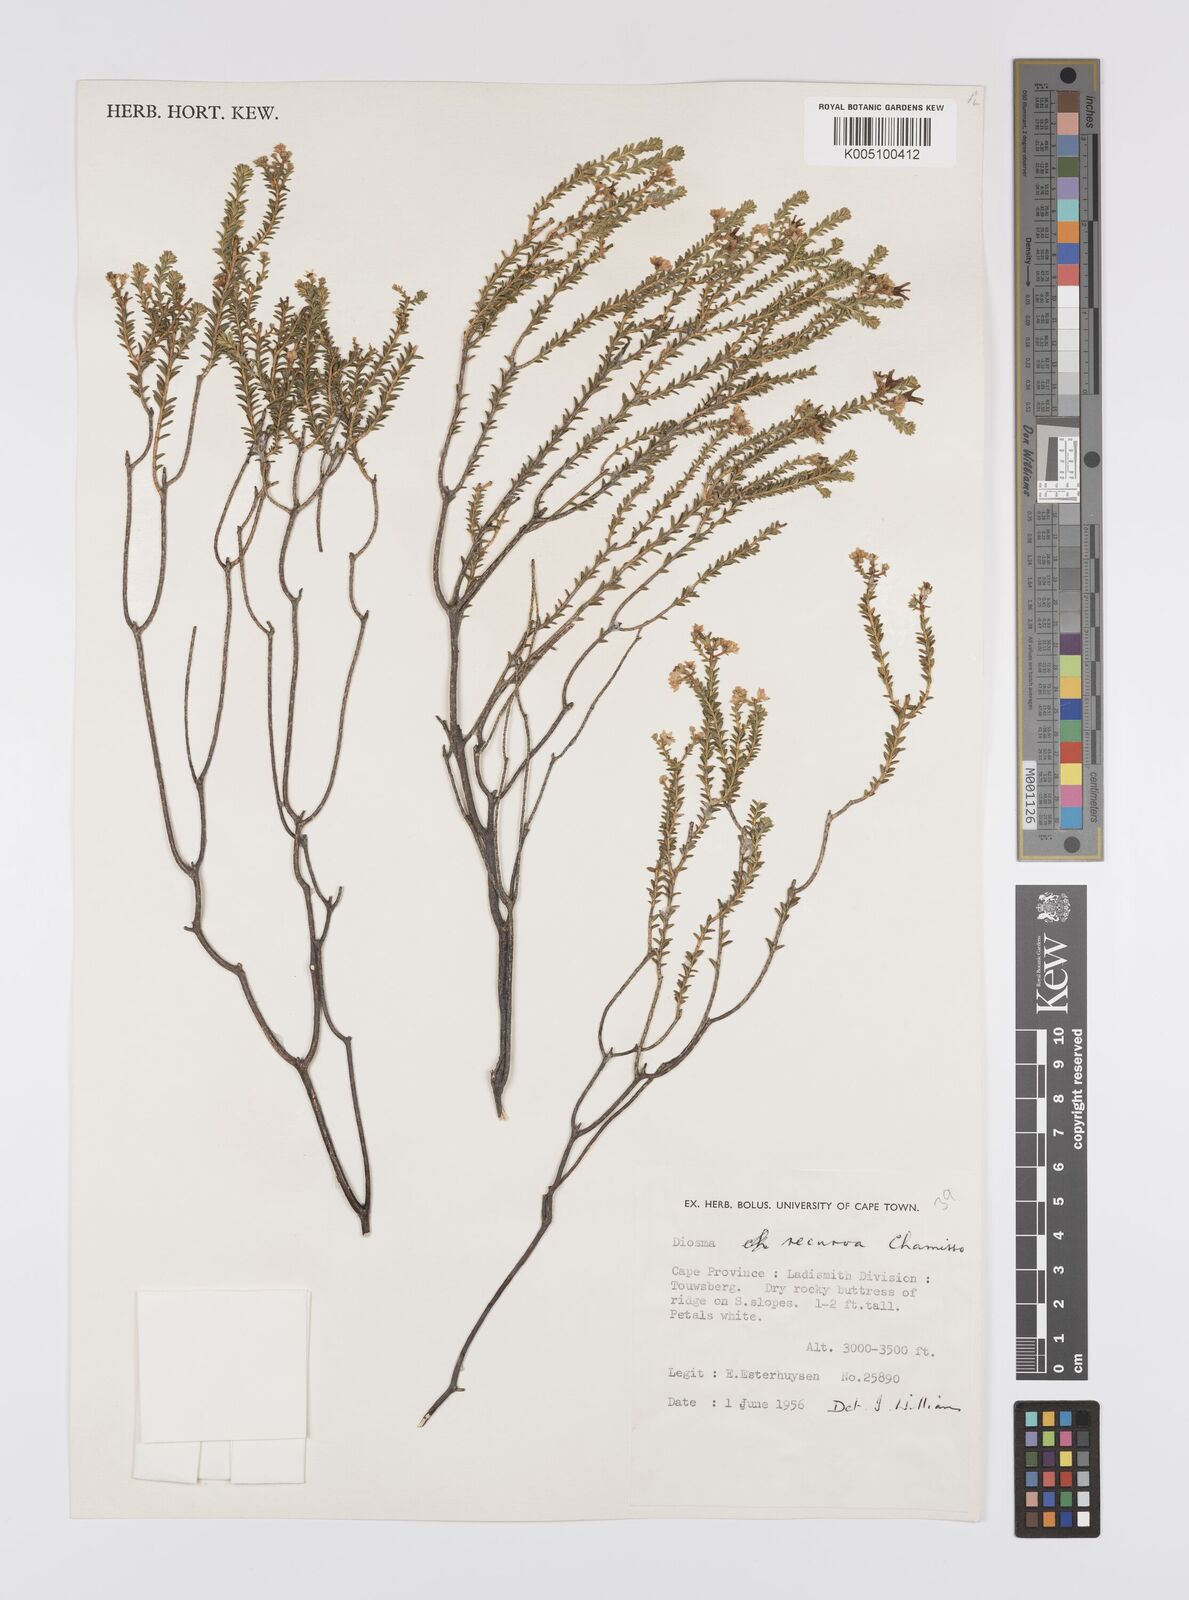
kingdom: Plantae
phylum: Tracheophyta
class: Magnoliopsida
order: Sapindales
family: Rutaceae
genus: Diosma
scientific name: Diosma recurva
